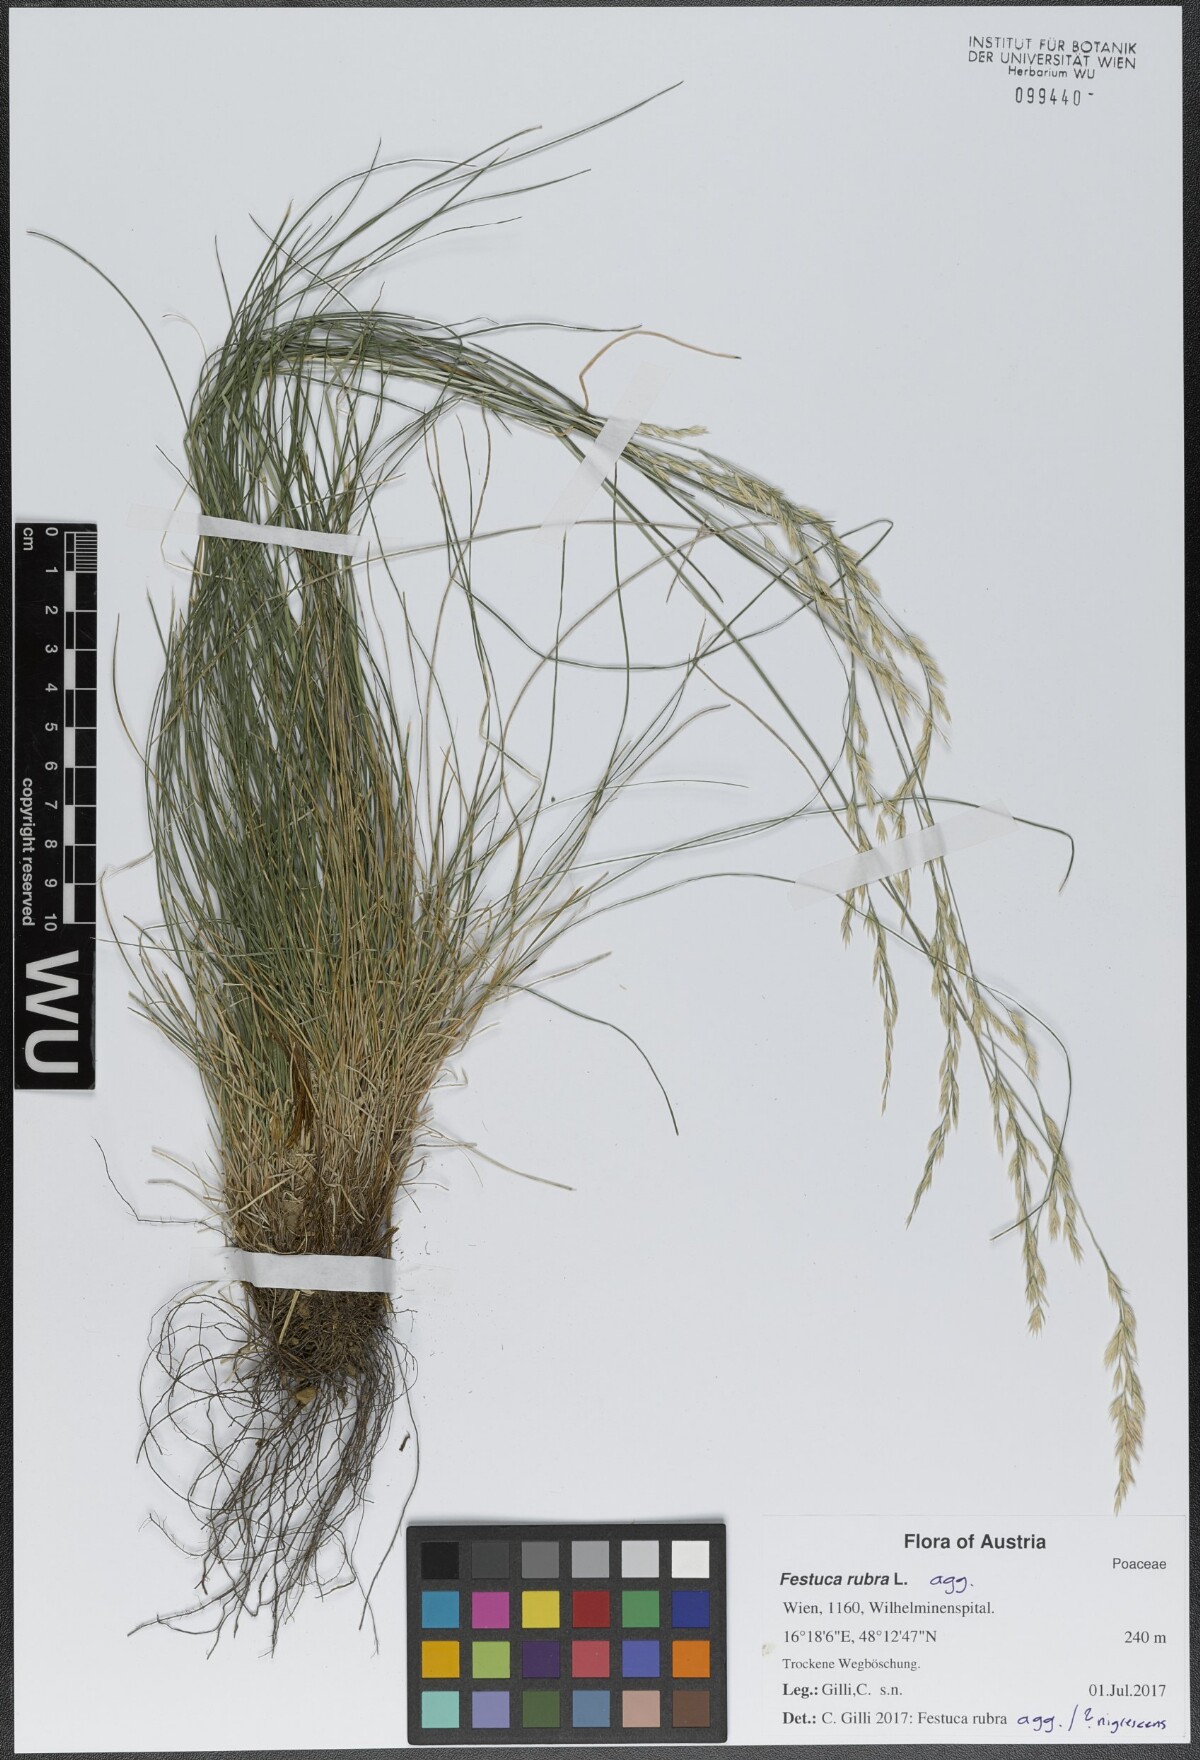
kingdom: Plantae
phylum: Tracheophyta
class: Liliopsida
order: Poales
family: Poaceae
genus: Festuca
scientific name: Festuca rubra
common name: Red fescue
